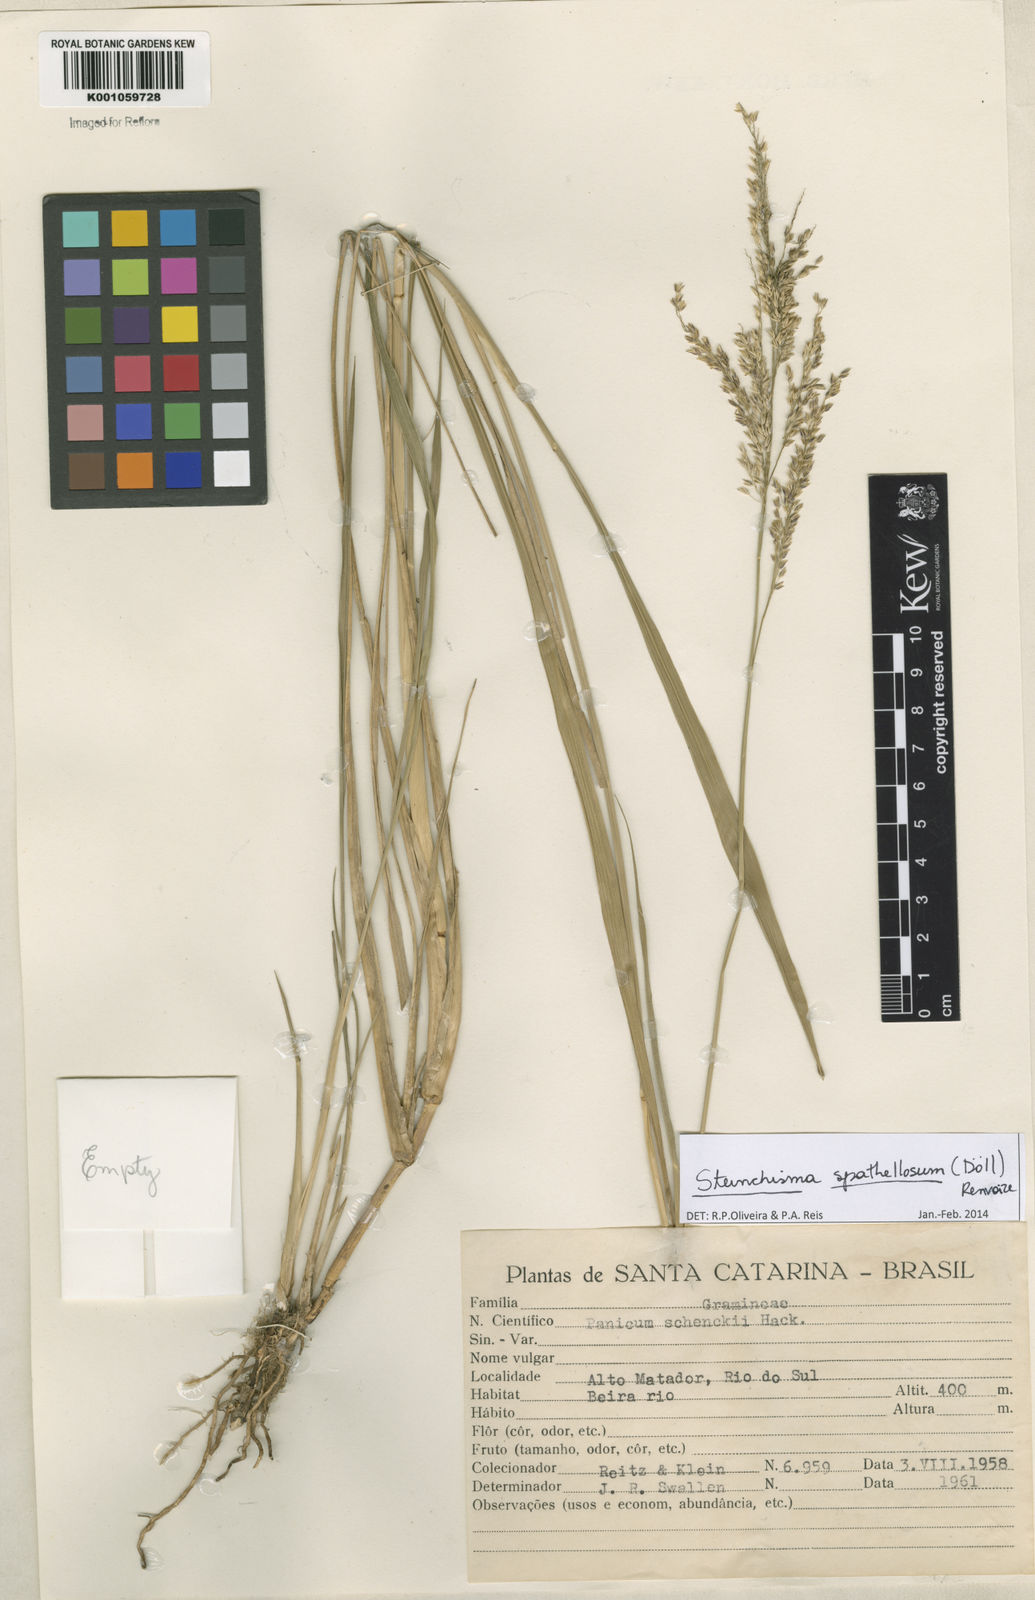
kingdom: Plantae
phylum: Tracheophyta
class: Liliopsida
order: Poales
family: Poaceae
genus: Steinchisma
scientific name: Steinchisma
